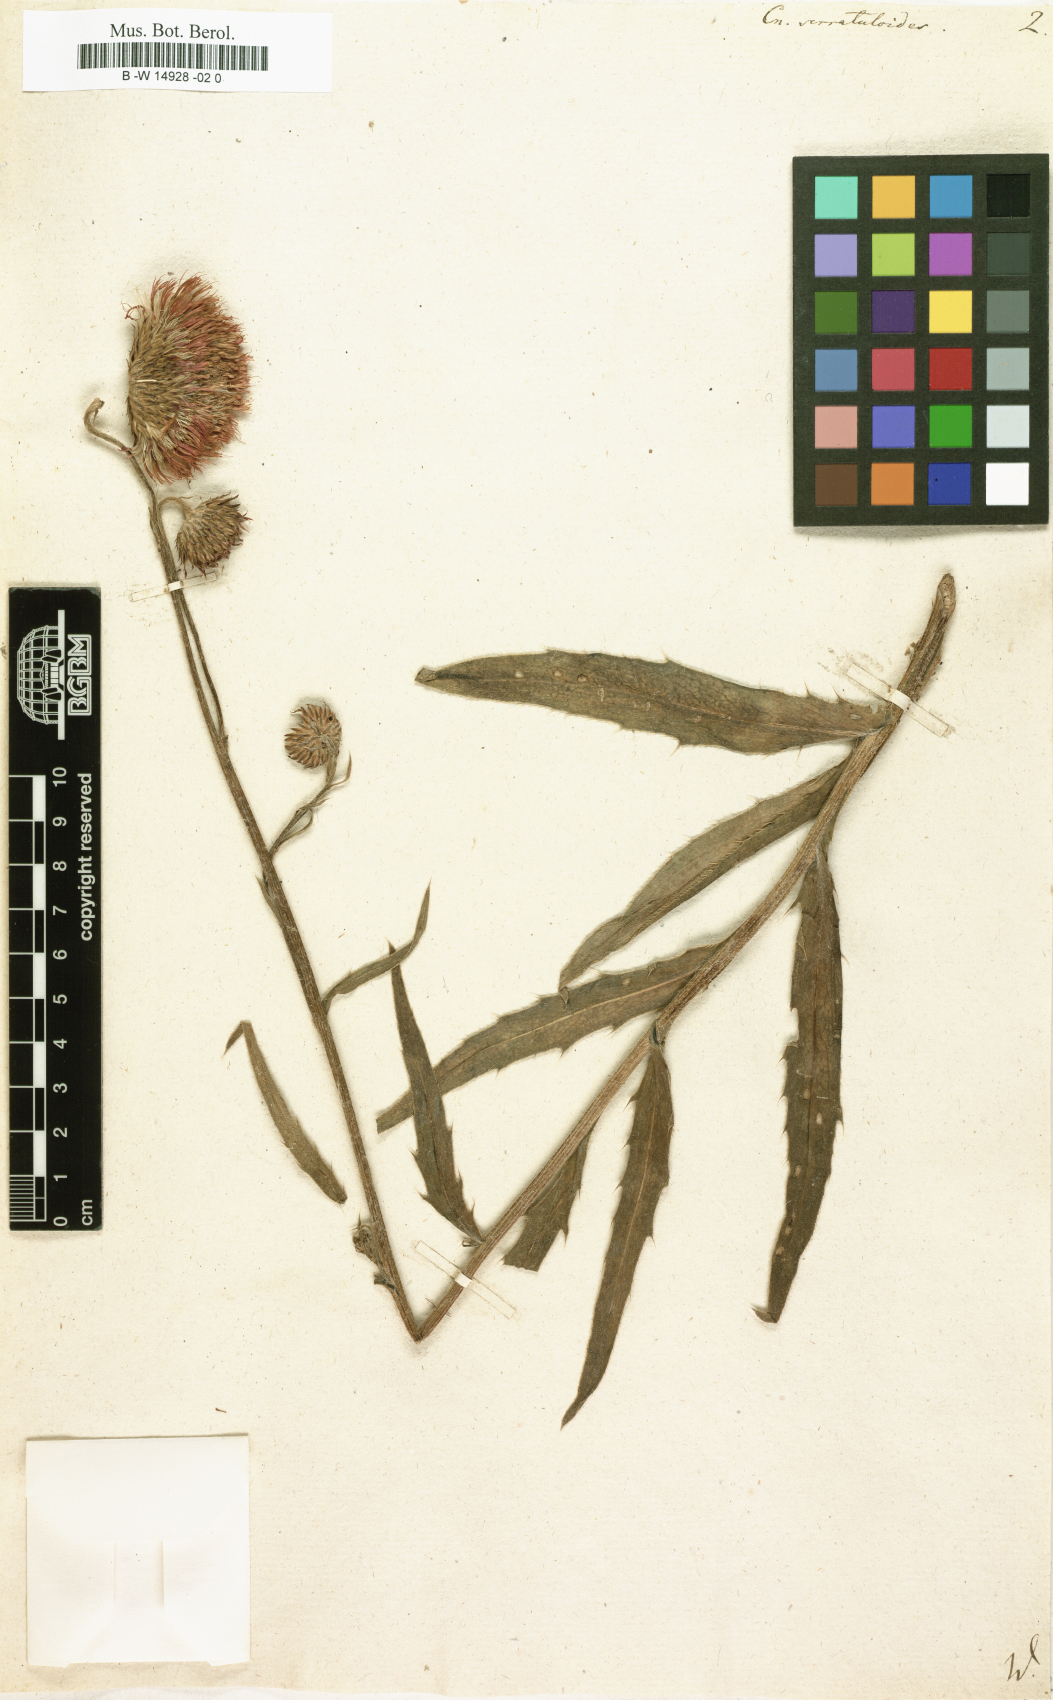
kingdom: Plantae
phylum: Tracheophyta
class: Magnoliopsida
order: Asterales
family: Asteraceae
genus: Cirsium
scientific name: Cirsium Cnicus serratuloides
